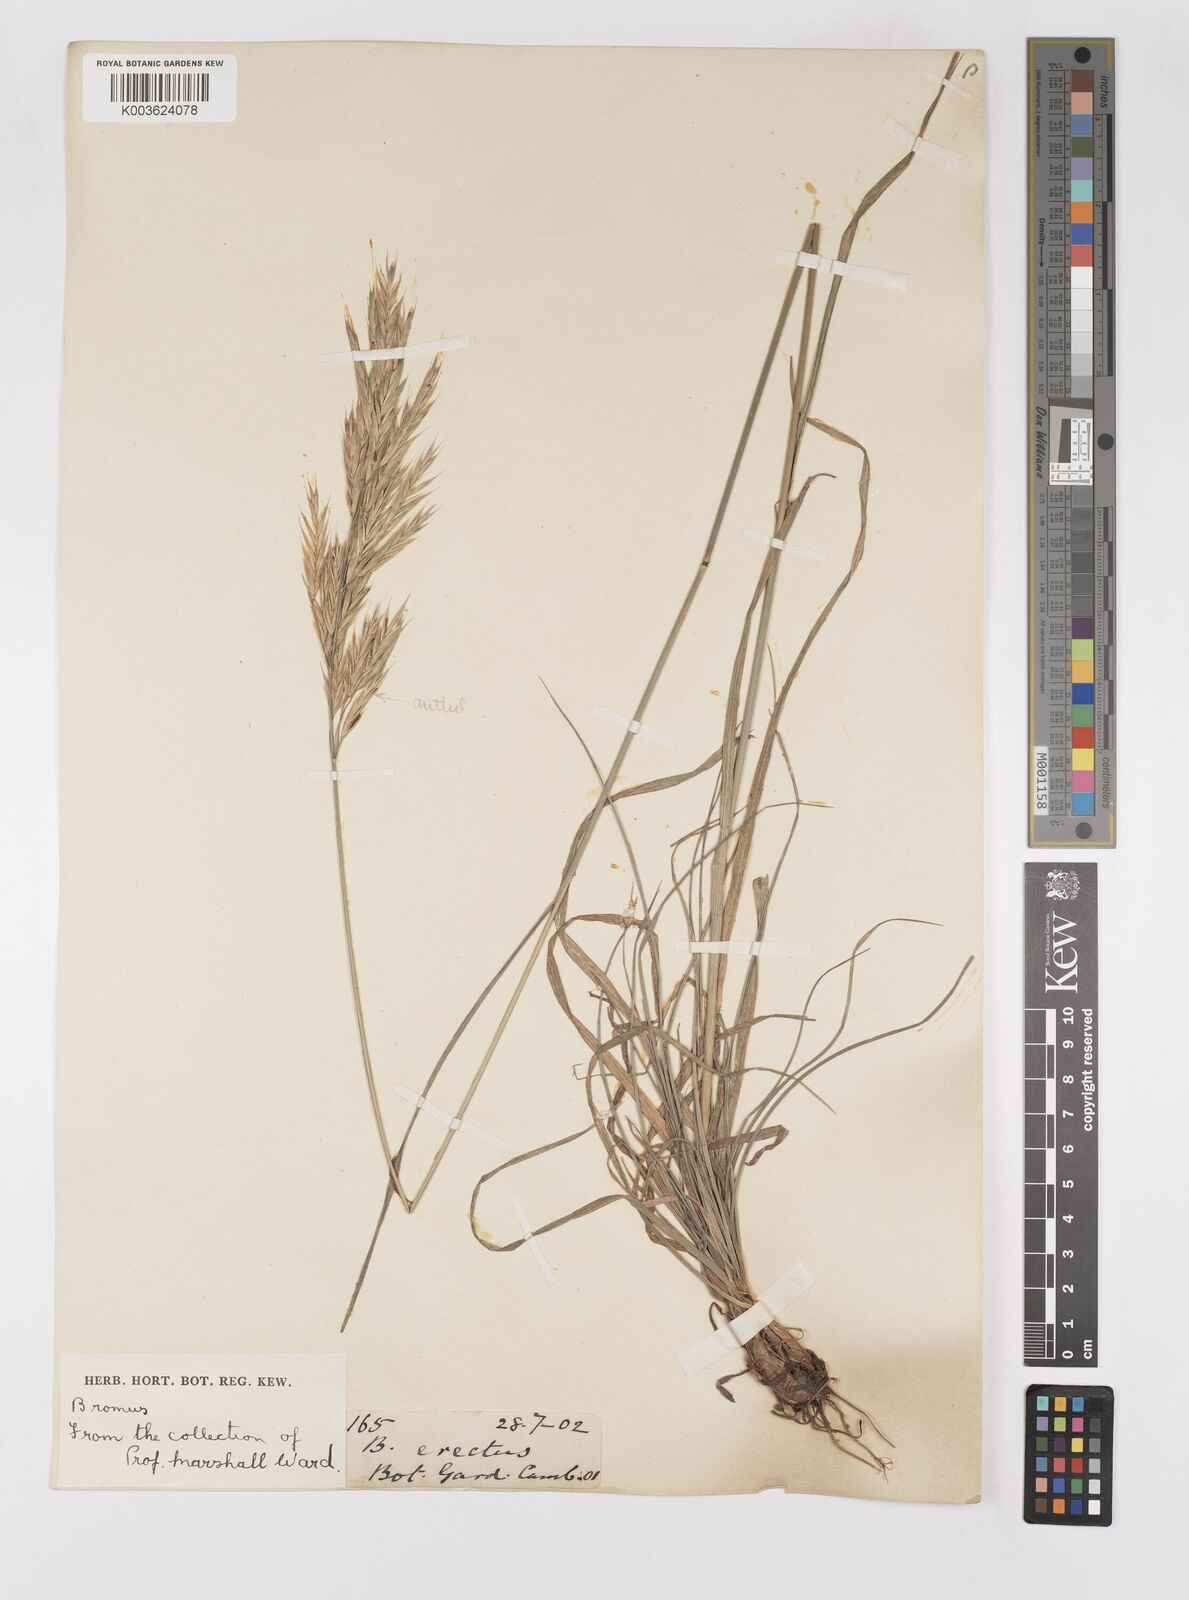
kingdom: Plantae
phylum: Tracheophyta
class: Liliopsida
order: Poales
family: Poaceae
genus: Bromus
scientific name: Bromus erectus
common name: Erect brome
